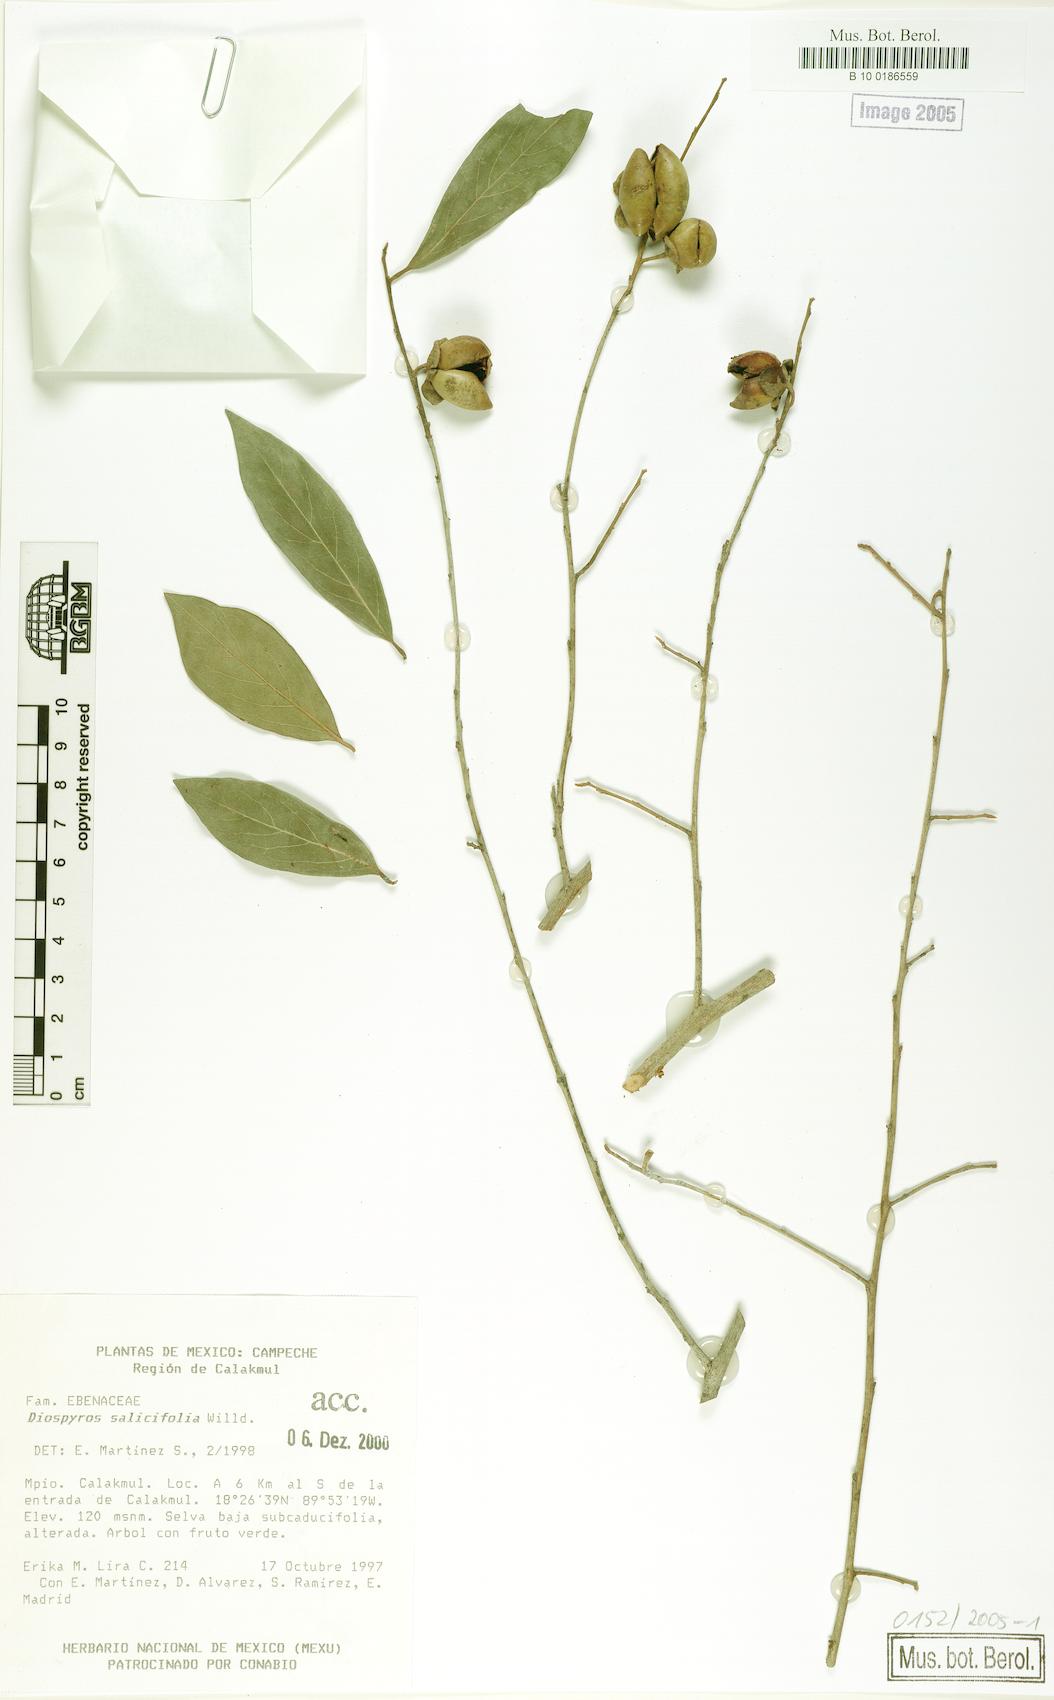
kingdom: Plantae
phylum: Tracheophyta
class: Magnoliopsida
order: Ericales
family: Ebenaceae
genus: Diospyros
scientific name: Diospyros salicifolia
